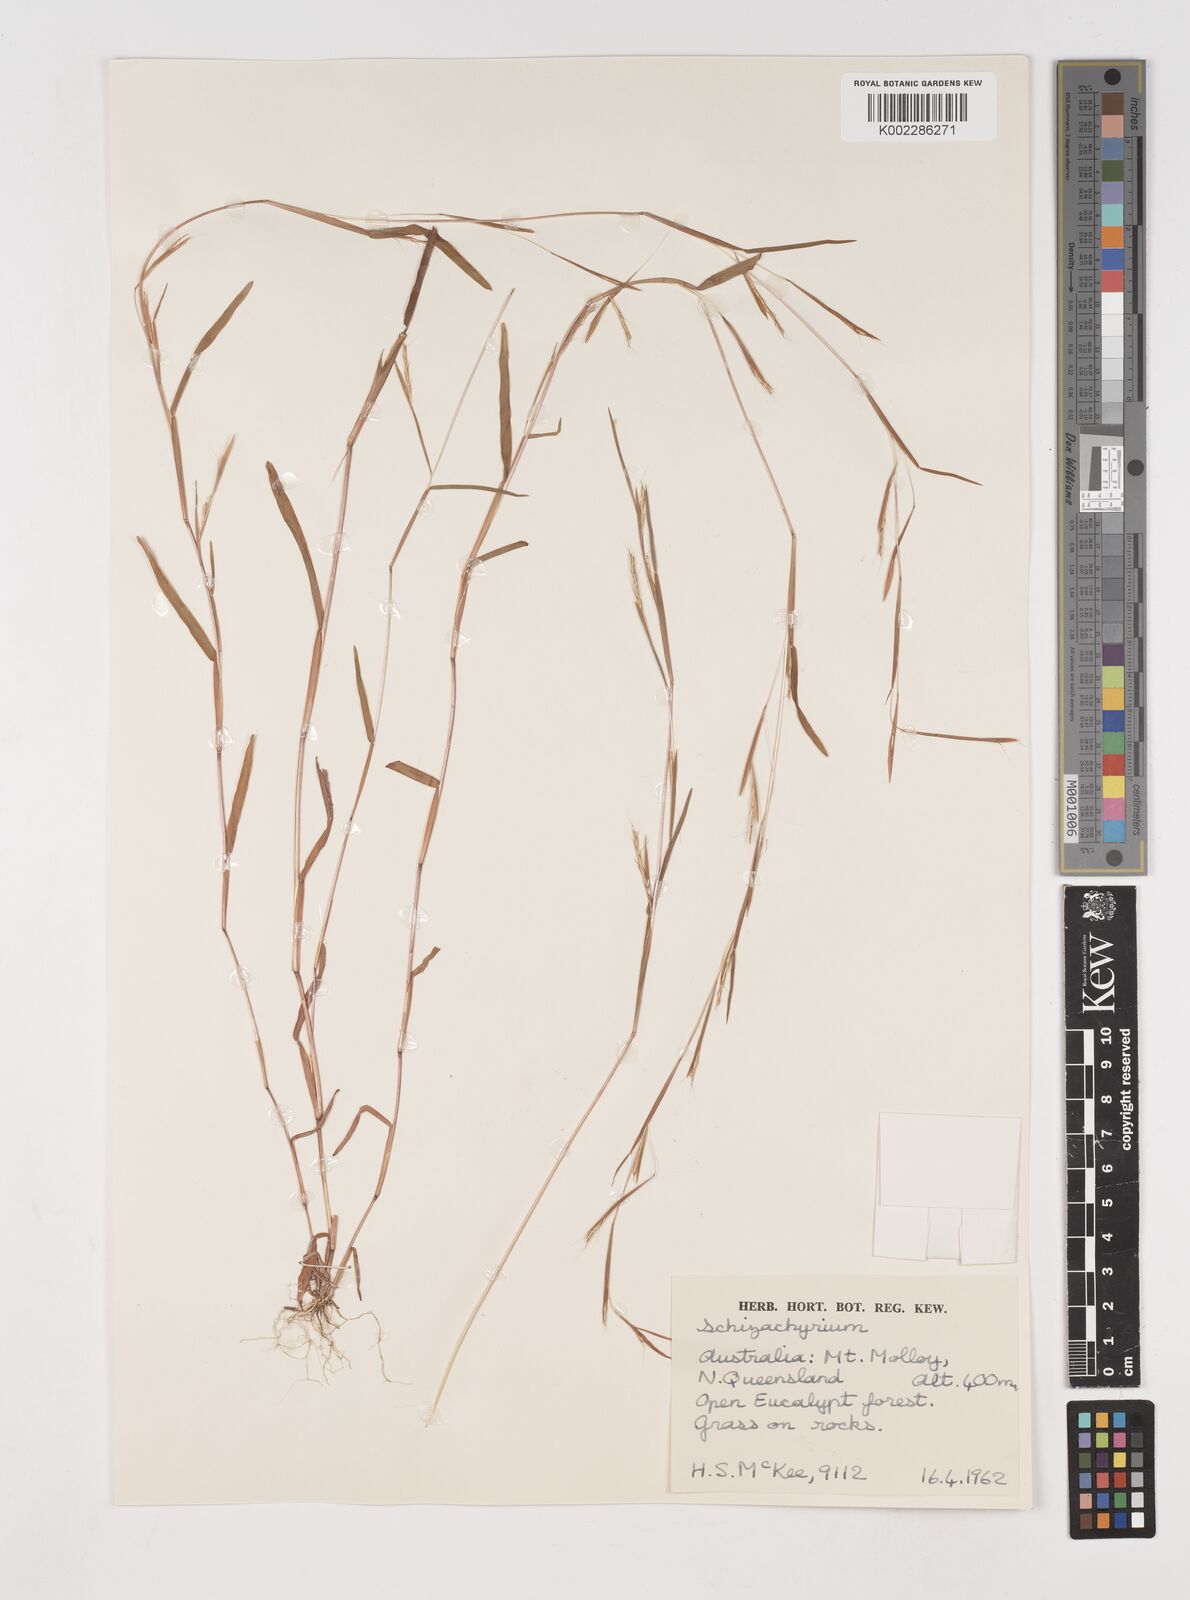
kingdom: Plantae
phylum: Tracheophyta
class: Liliopsida
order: Poales
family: Poaceae
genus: Schizachyrium
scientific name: Schizachyrium pseudeulalia
